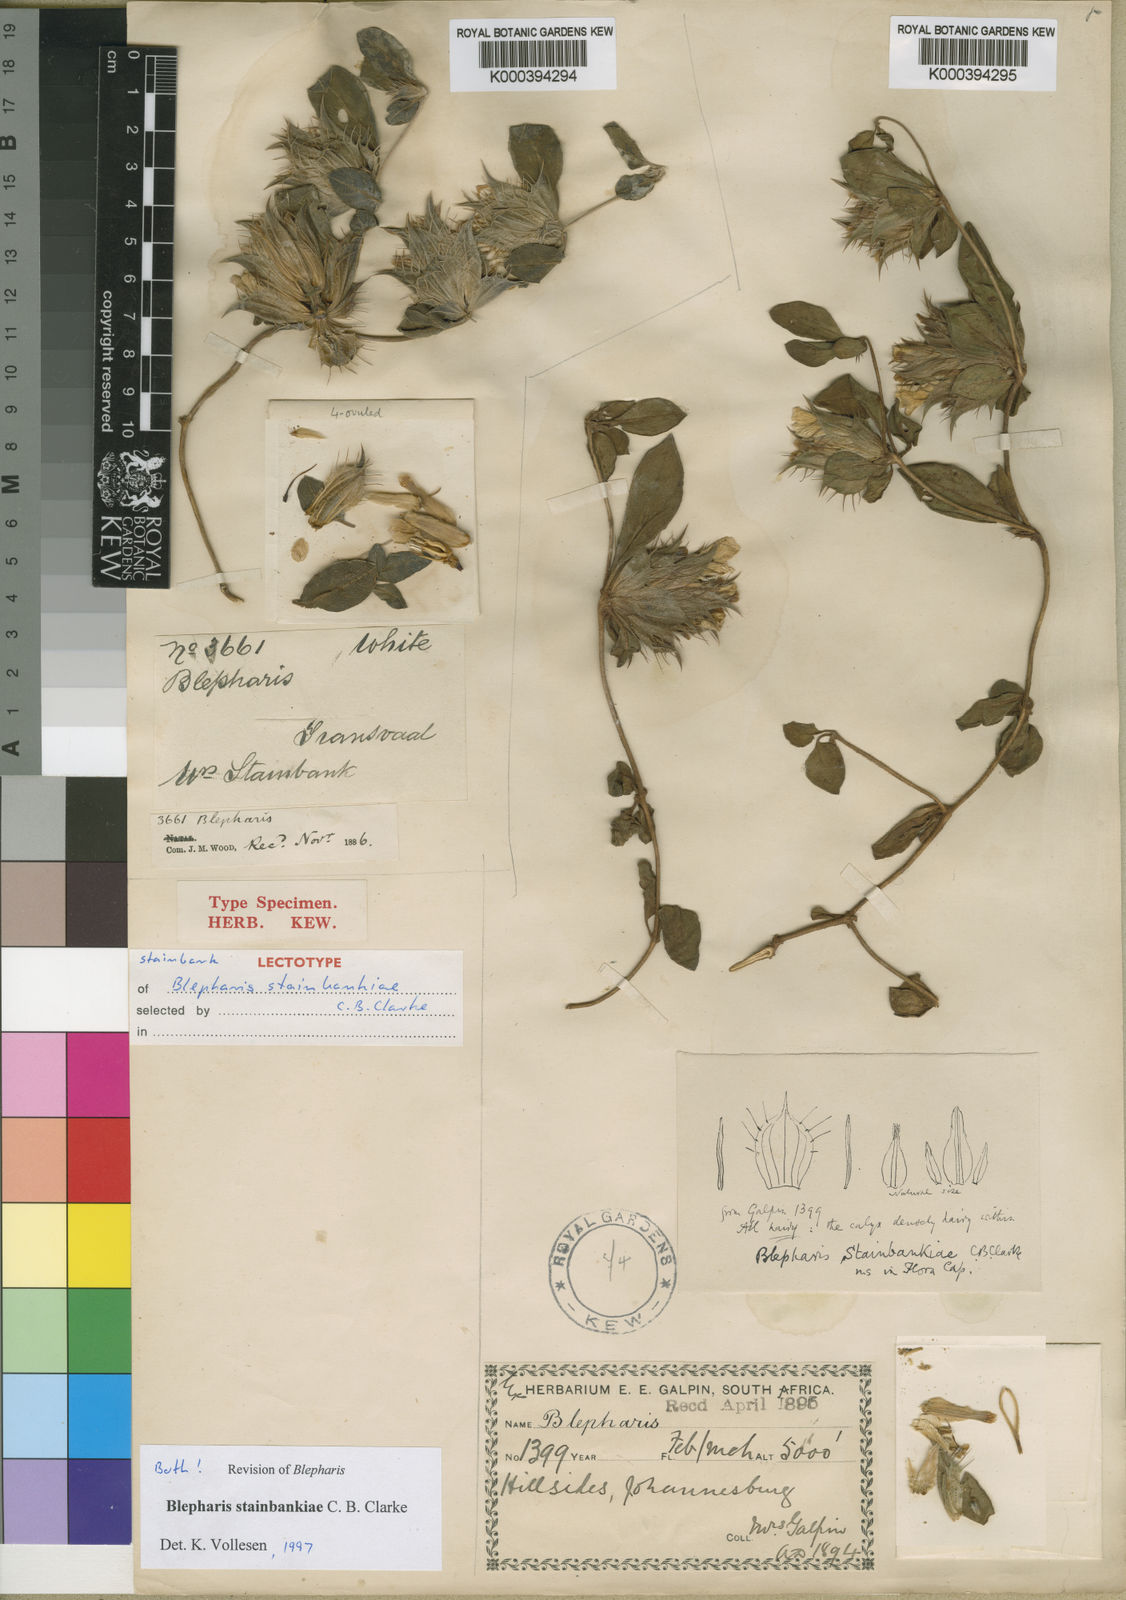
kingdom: Plantae
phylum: Tracheophyta
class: Magnoliopsida
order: Lamiales
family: Acanthaceae
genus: Blepharis
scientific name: Blepharis stainbankiae
